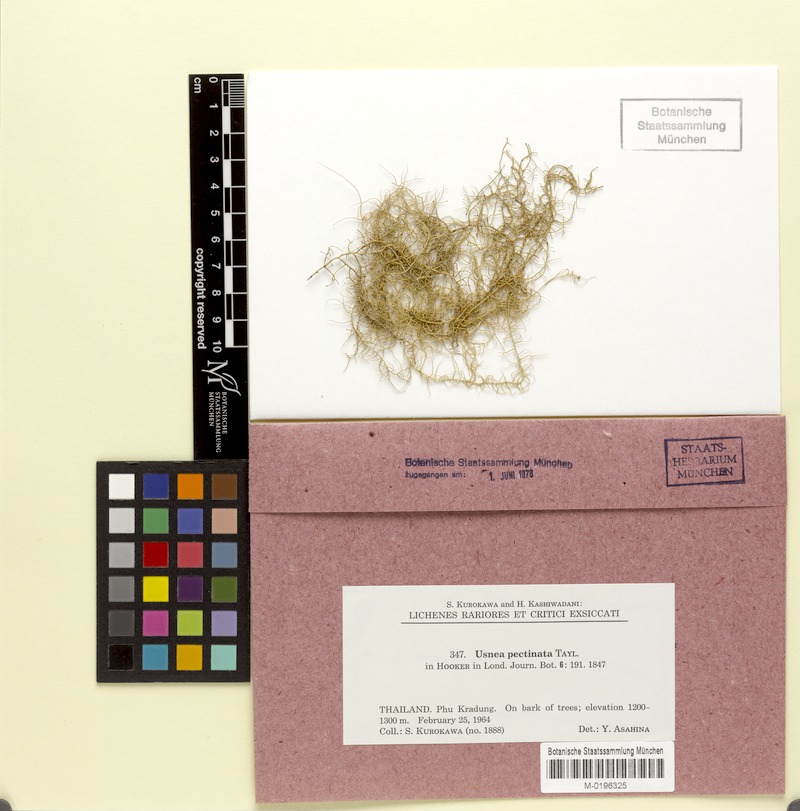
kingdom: Fungi
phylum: Ascomycota
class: Lecanoromycetes
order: Lecanorales
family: Parmeliaceae
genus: Eumitria
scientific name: Eumitria pectinata
